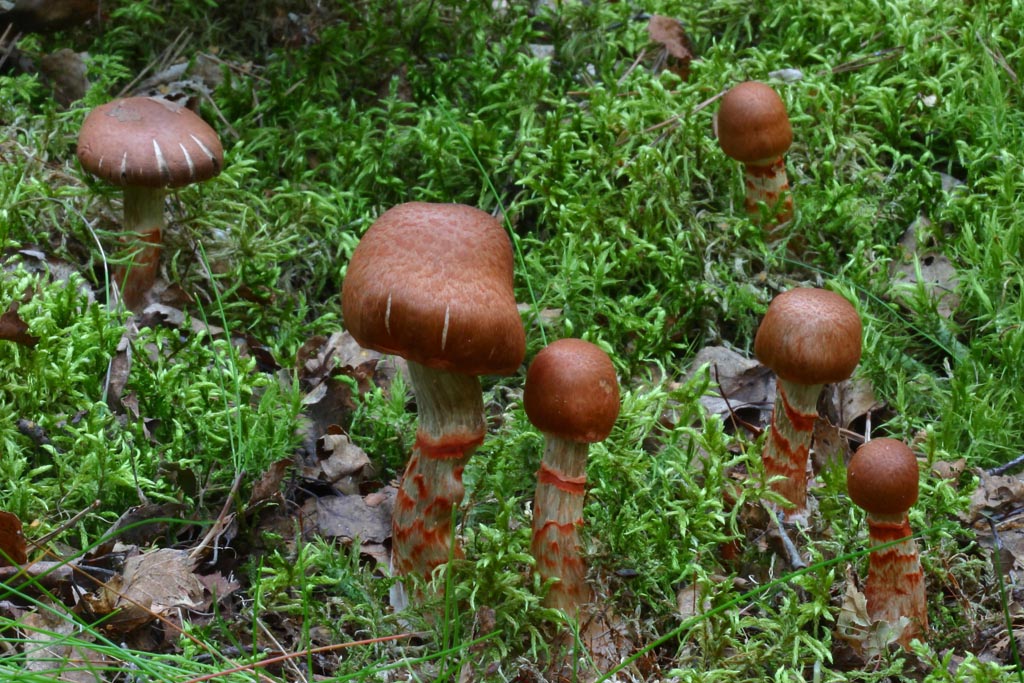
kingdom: Fungi
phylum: Basidiomycota
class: Agaricomycetes
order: Agaricales
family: Cortinariaceae
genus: Cortinarius
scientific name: Cortinarius armillatus
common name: cinnoberbæltet slørhat
